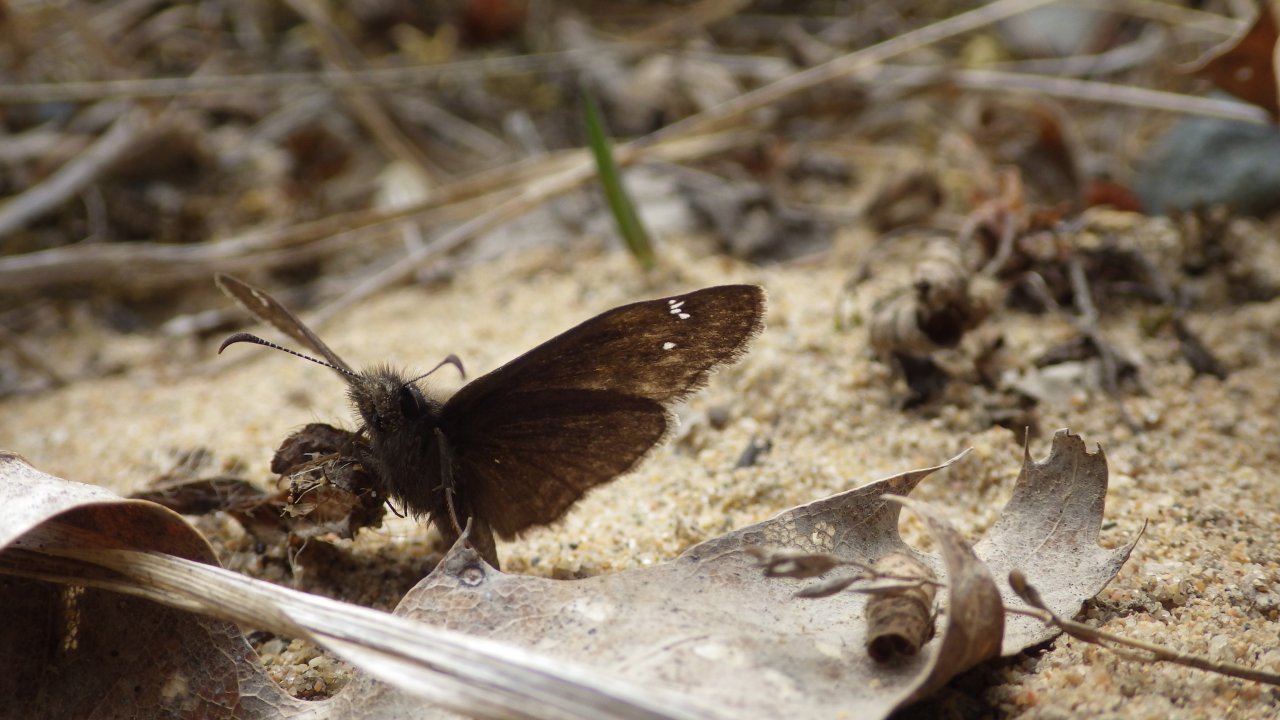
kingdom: Animalia
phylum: Arthropoda
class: Insecta
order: Lepidoptera
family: Hesperiidae
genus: Gesta
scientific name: Gesta
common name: Columbine Duskywing
